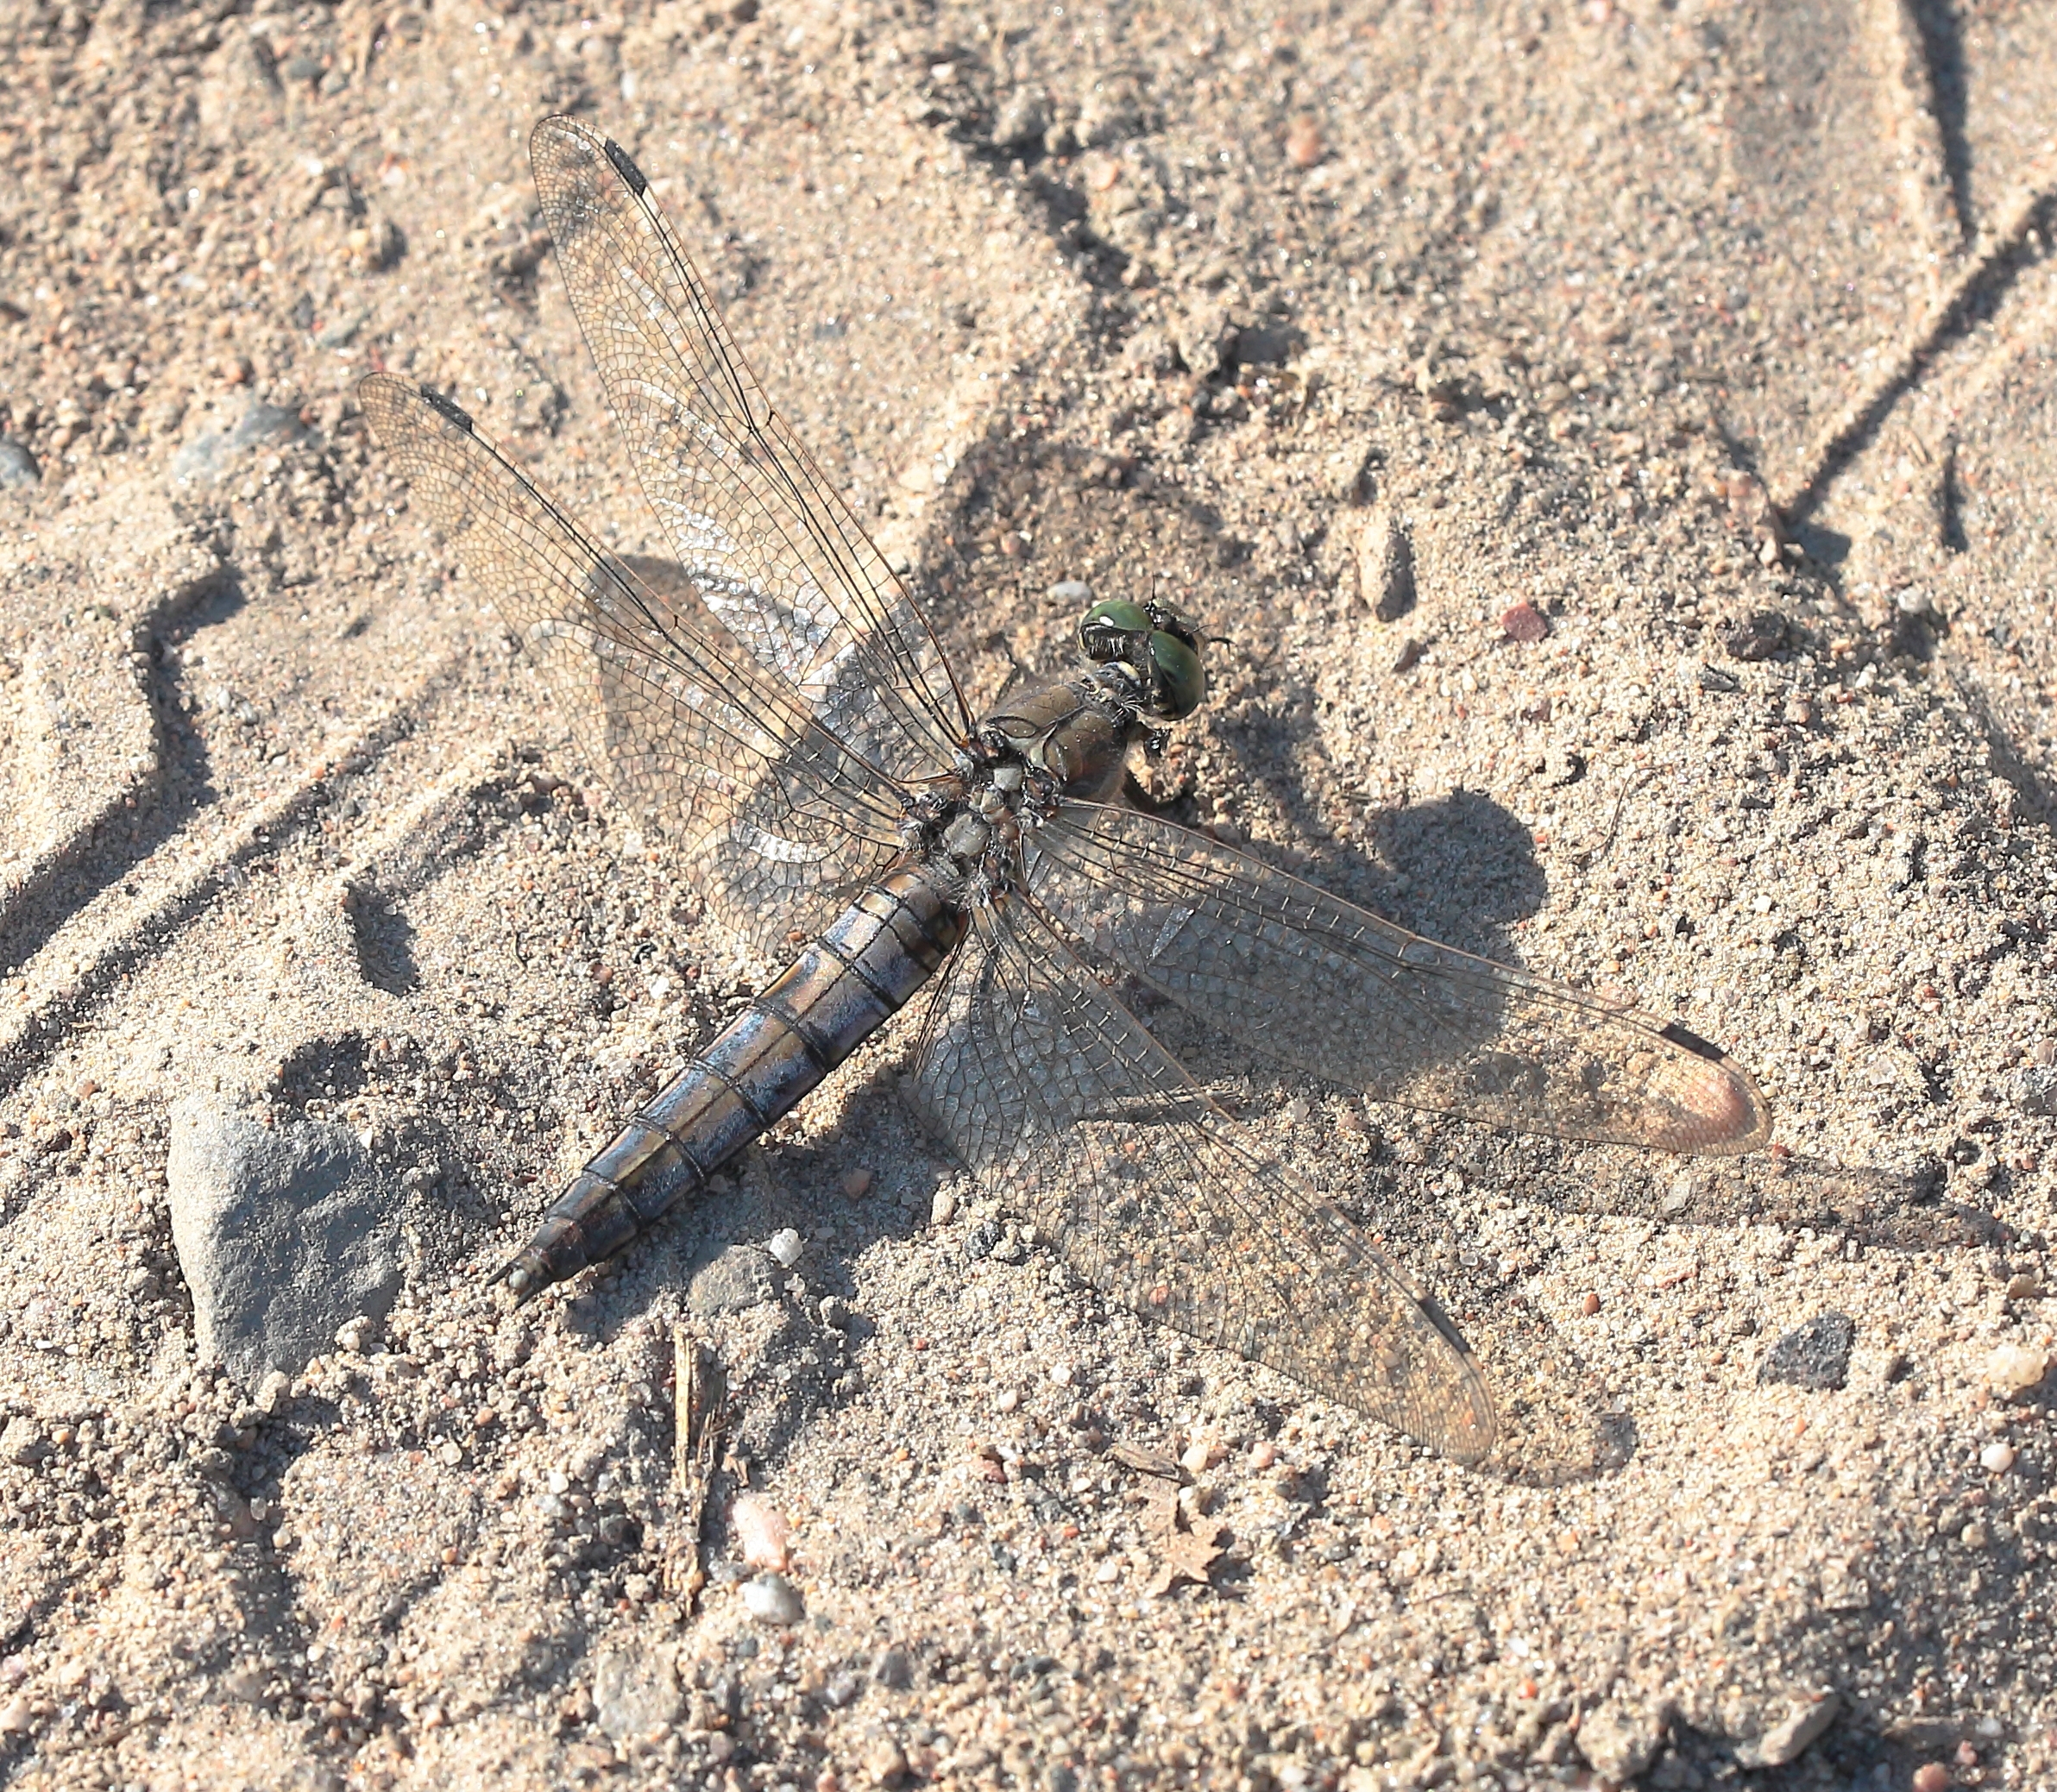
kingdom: Animalia
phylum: Arthropoda
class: Insecta
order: Odonata
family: Libellulidae
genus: Orthetrum
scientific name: Orthetrum cancellatum
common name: Black-tailed skimmer
